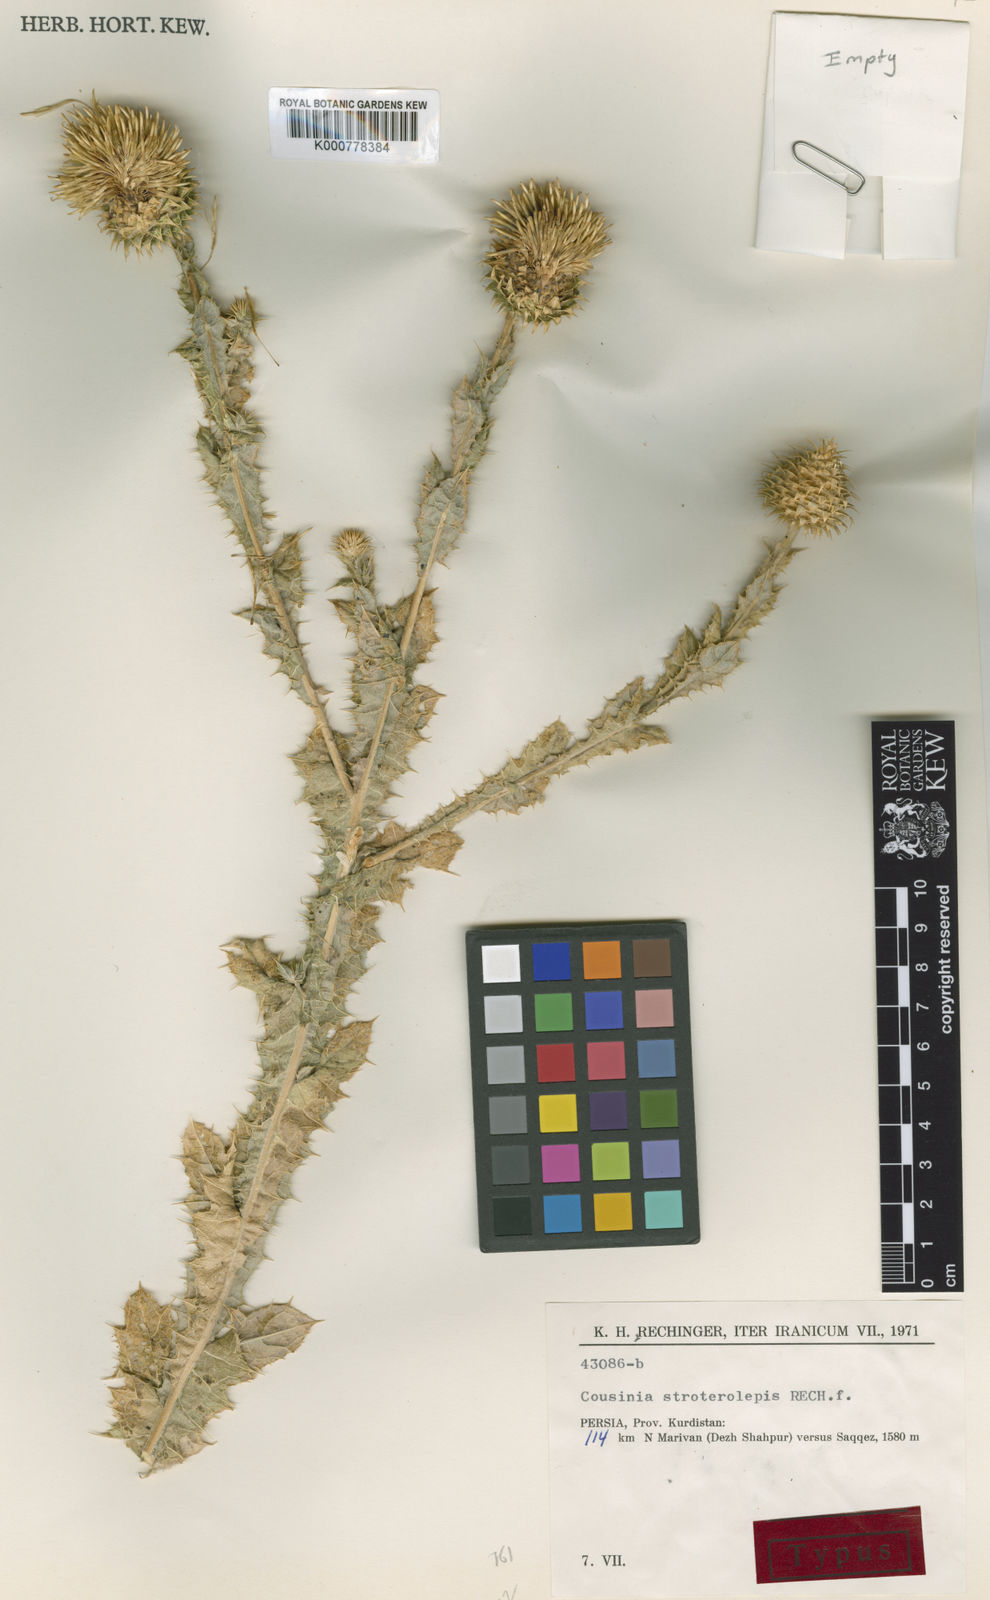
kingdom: Plantae
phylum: Tracheophyta
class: Magnoliopsida
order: Asterales
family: Asteraceae
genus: Cousinia
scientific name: Cousinia stroterolepis
